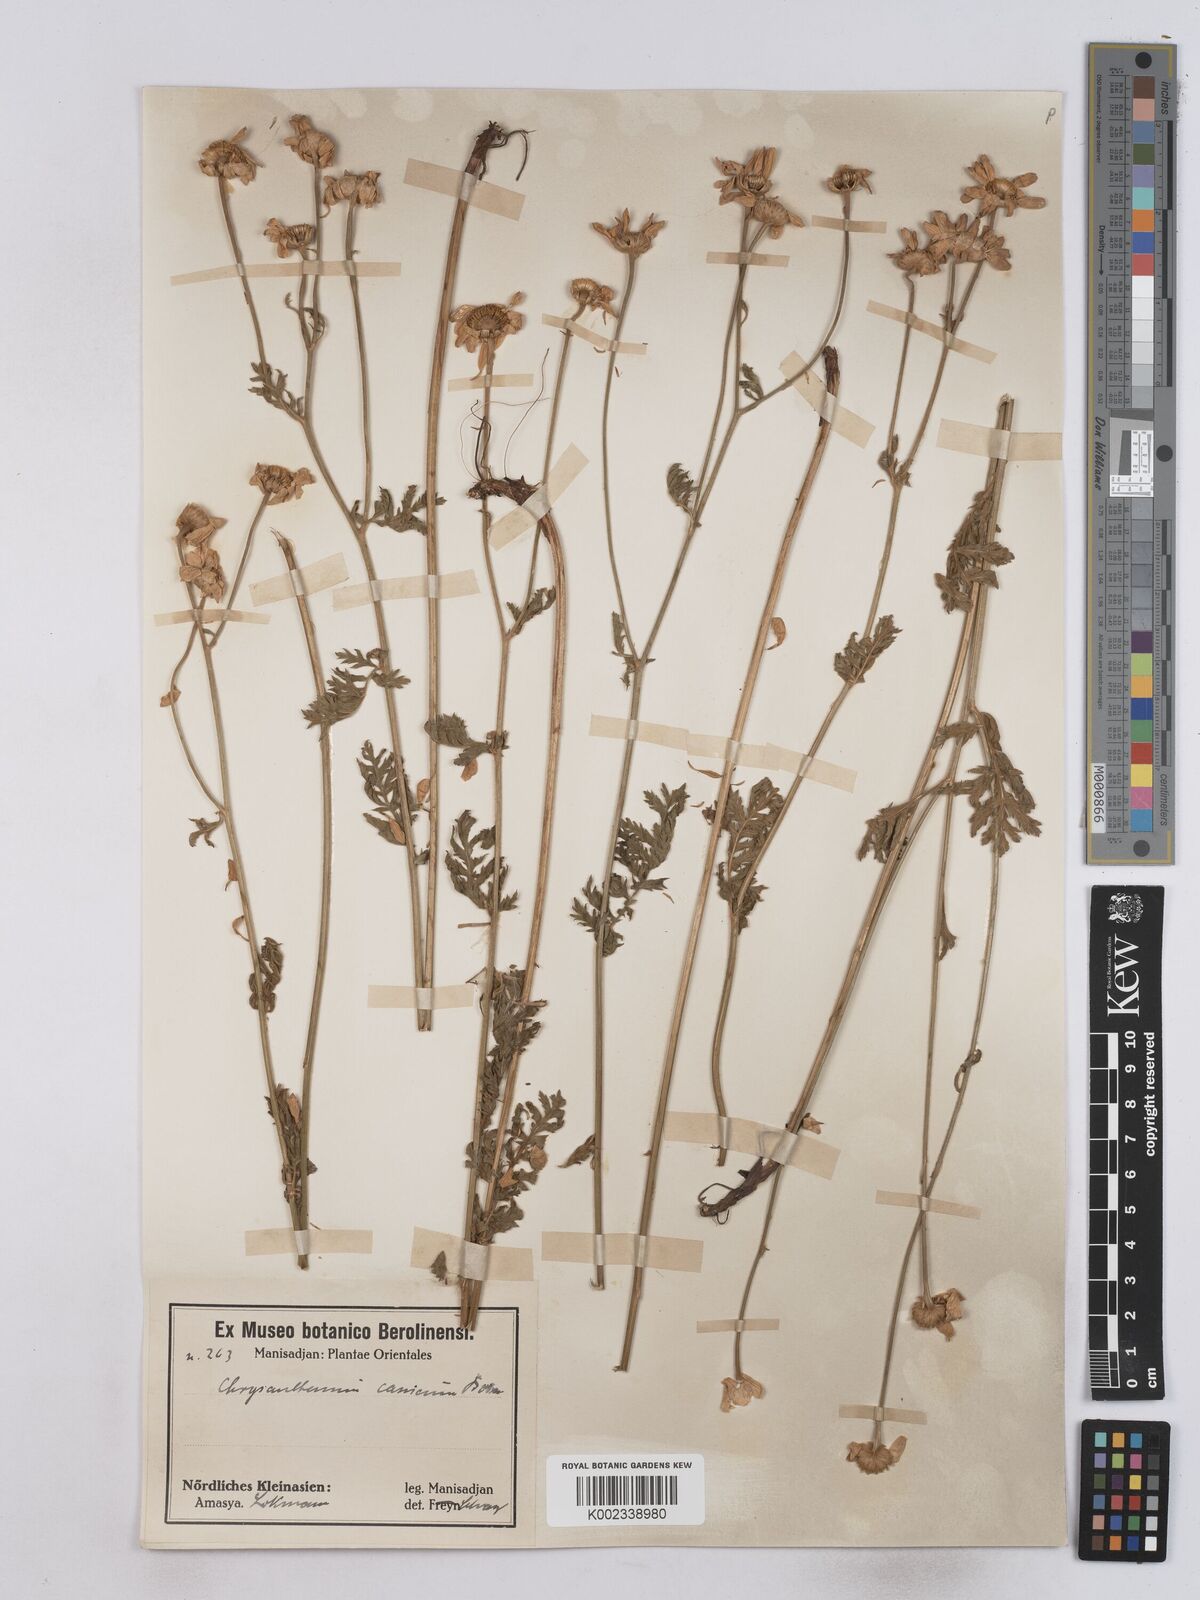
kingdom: Plantae
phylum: Tracheophyta
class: Magnoliopsida
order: Asterales
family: Asteraceae
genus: Tanacetum
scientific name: Tanacetum poteriifolium
